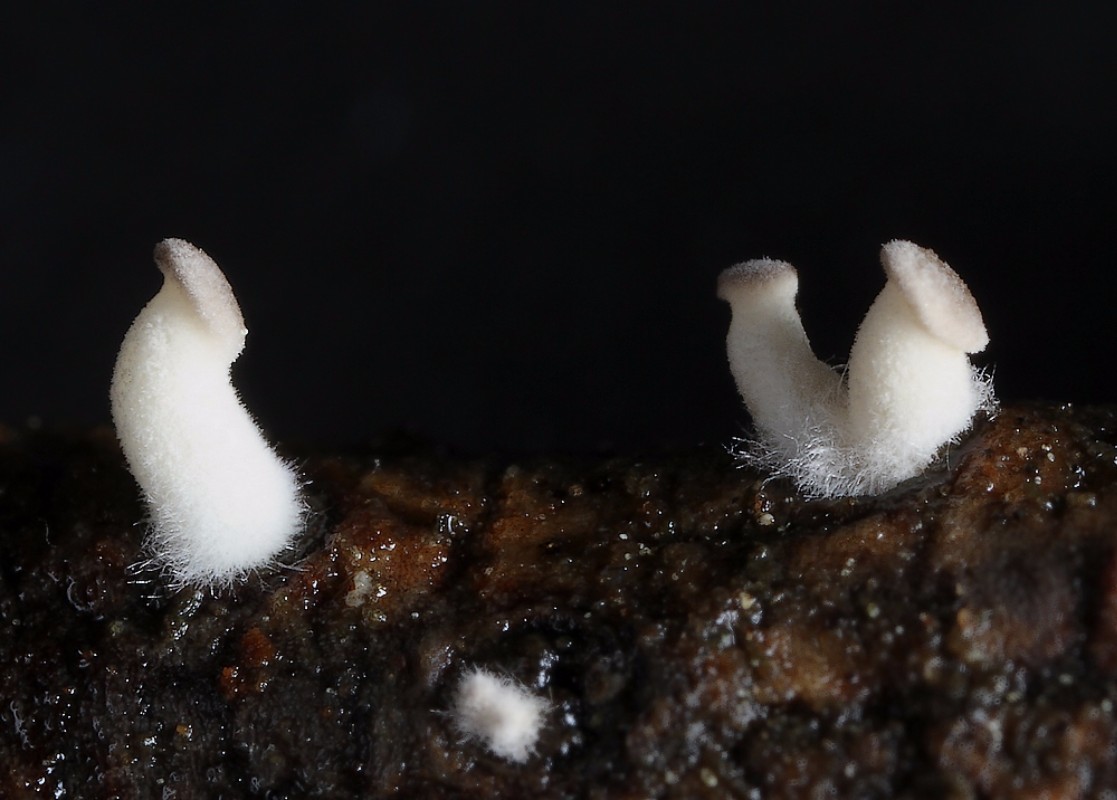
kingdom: Fungi
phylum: Basidiomycota
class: Agaricomycetes
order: Agaricales
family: Pleurotaceae
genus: Hohenbuehelia
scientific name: Hohenbuehelia atrocoerulea
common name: blålig filthat
